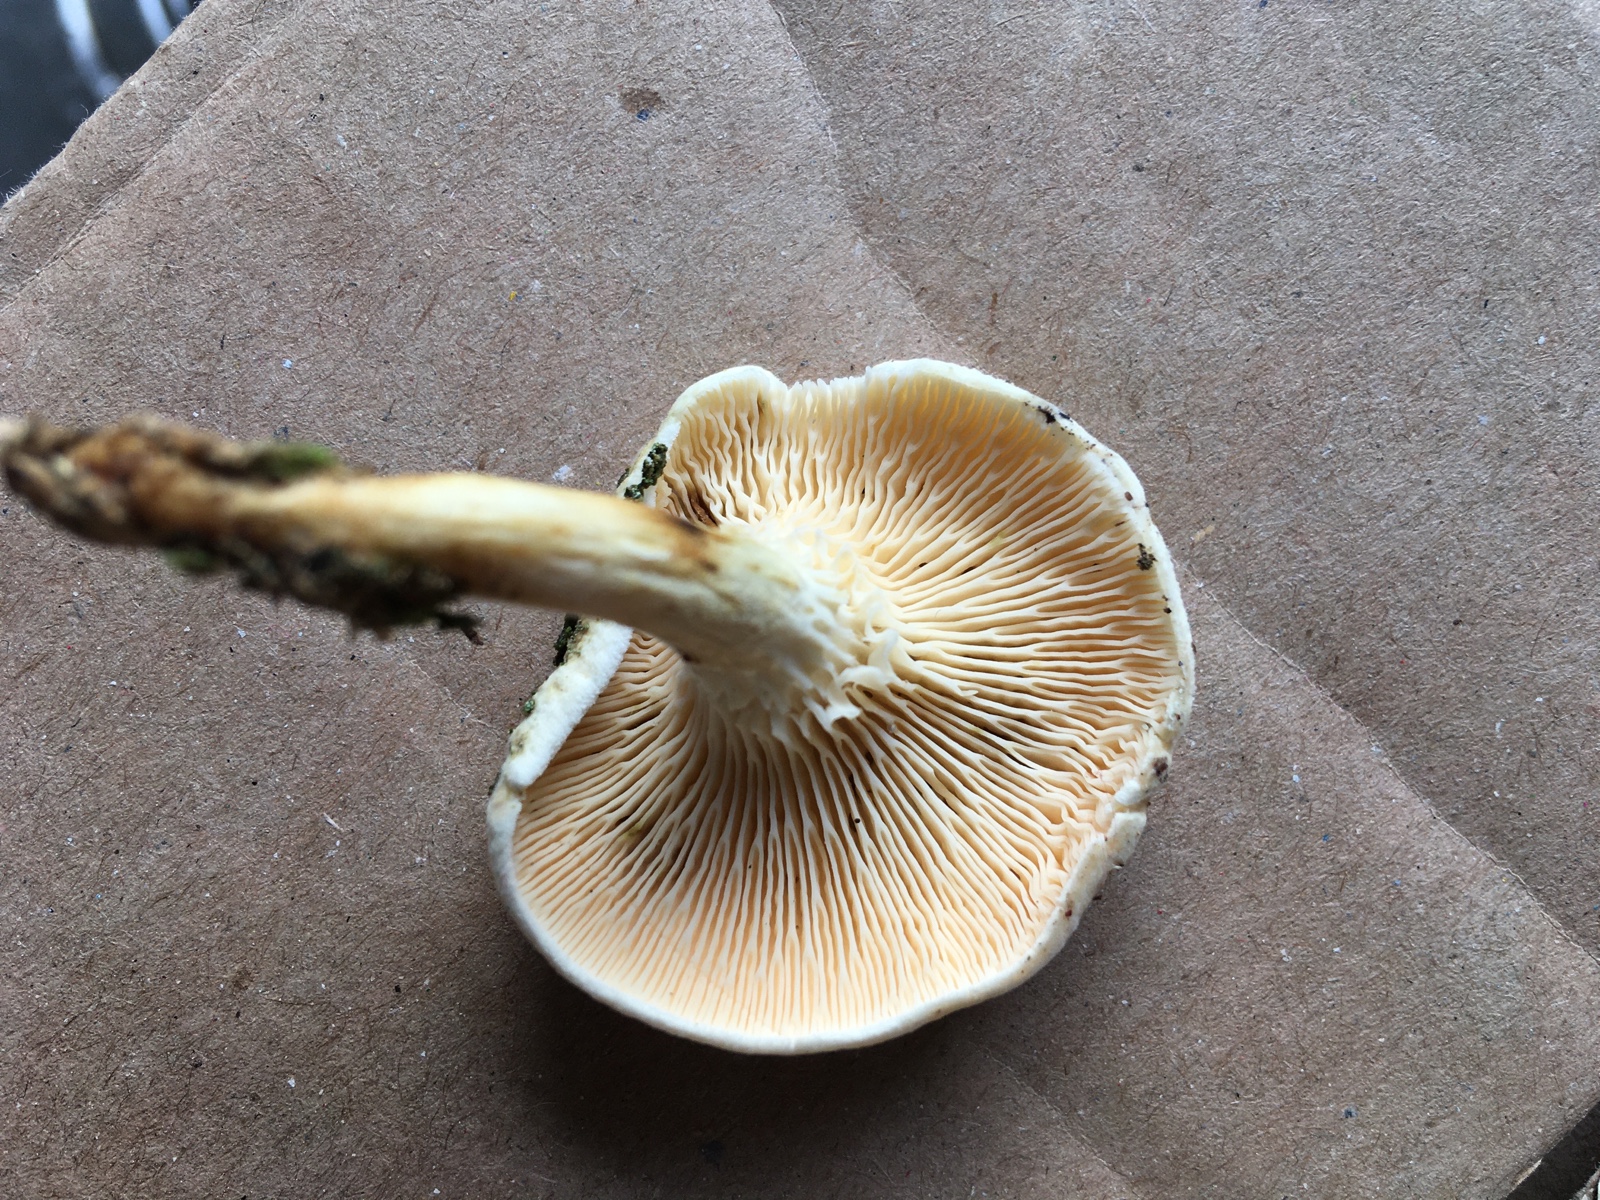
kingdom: Fungi
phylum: Basidiomycota
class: Agaricomycetes
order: Boletales
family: Hygrophoropsidaceae
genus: Hygrophoropsis
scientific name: Hygrophoropsis pallida
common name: bleg orangekantarel
